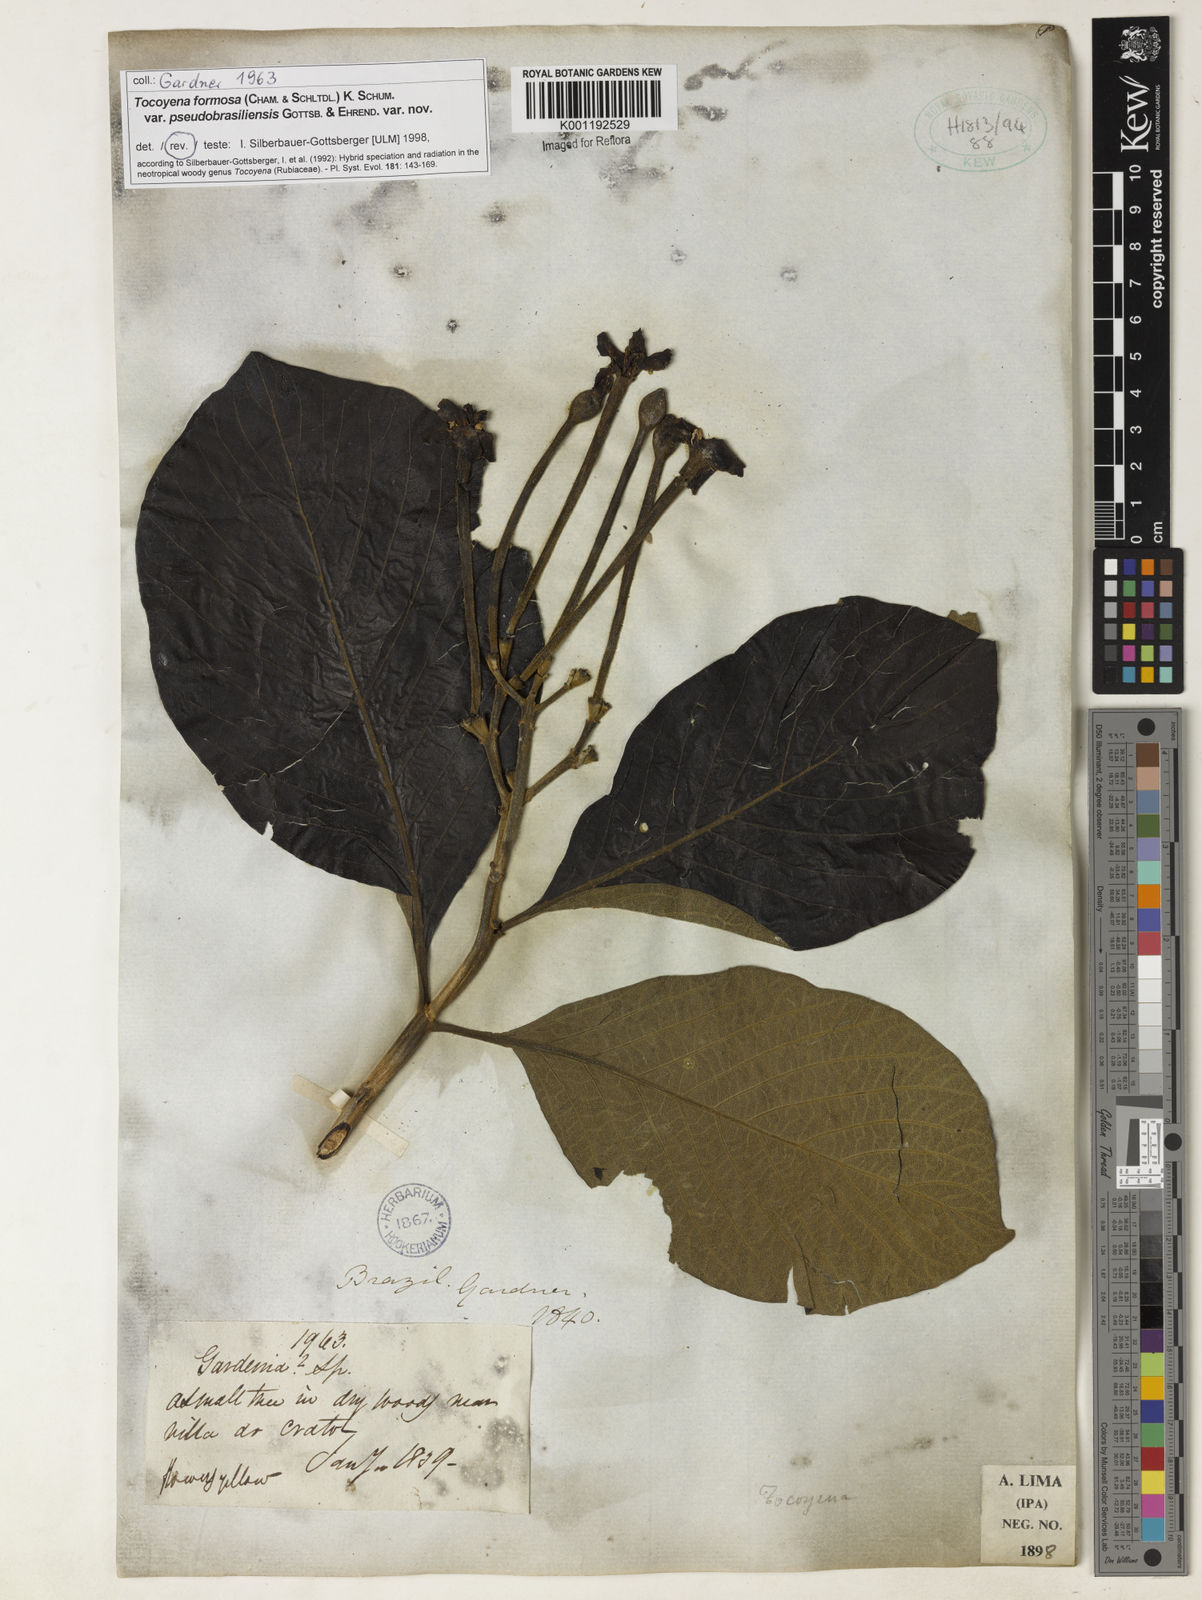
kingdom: Plantae
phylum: Tracheophyta
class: Magnoliopsida
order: Gentianales
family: Rubiaceae
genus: Tocoyena
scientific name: Tocoyena formosa
